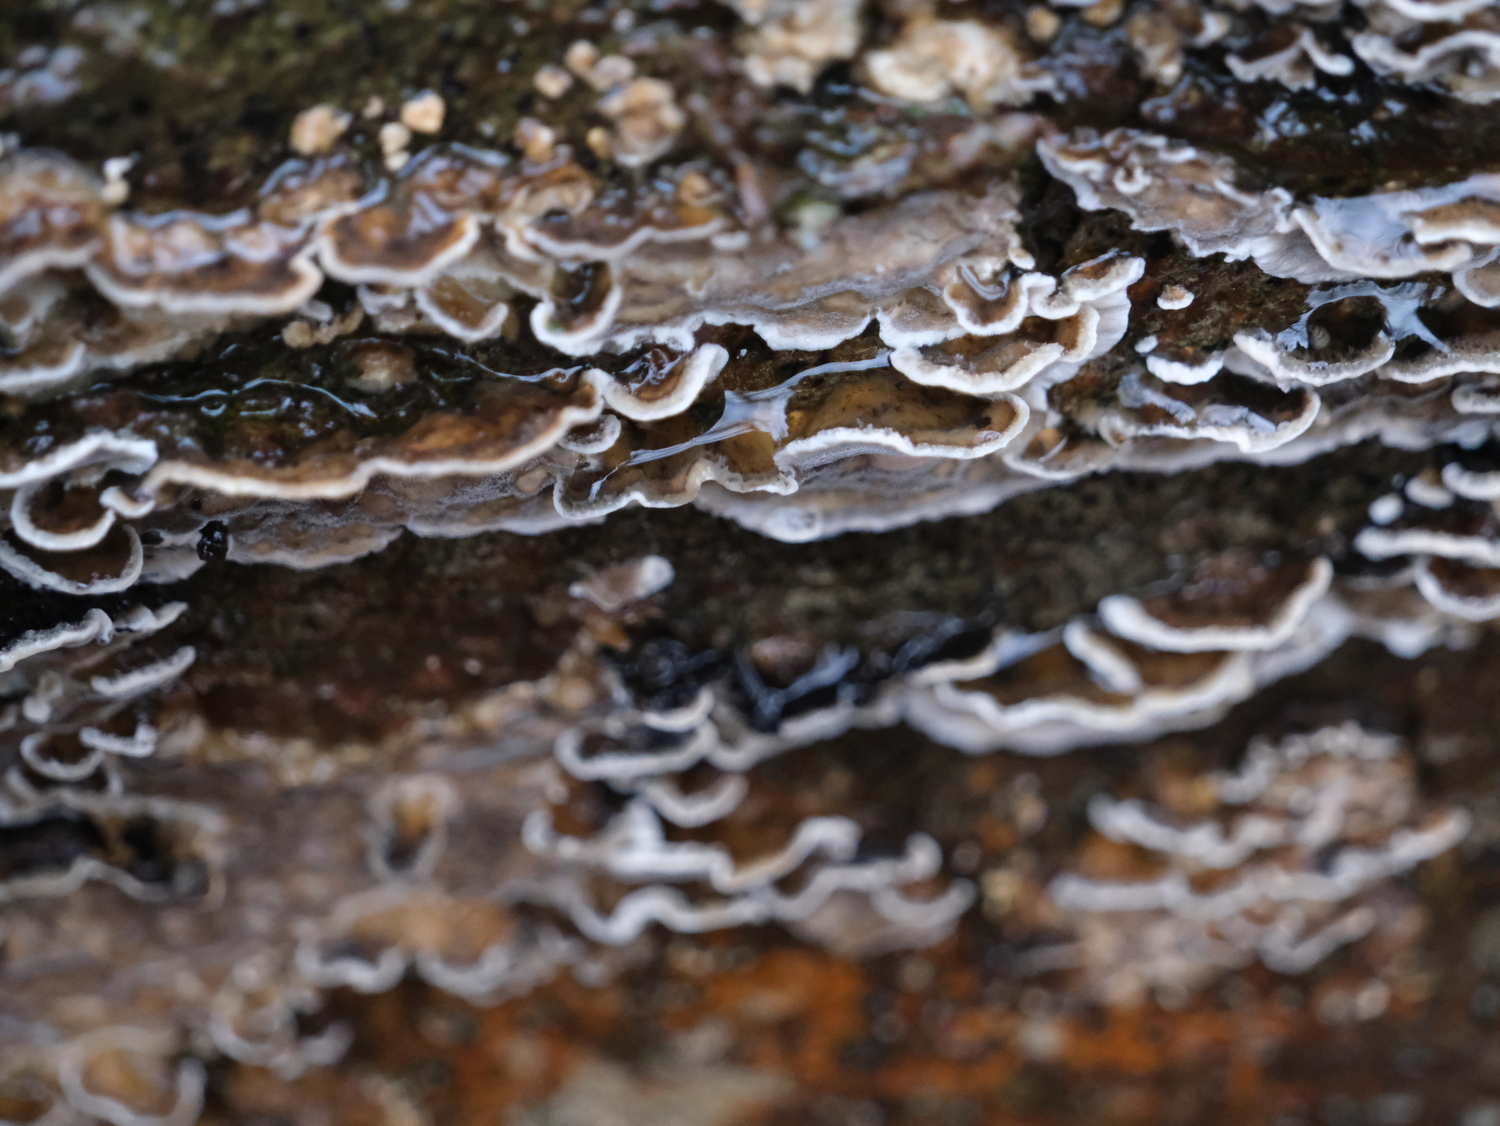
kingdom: Fungi
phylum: Basidiomycota
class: Agaricomycetes
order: Polyporales
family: Phanerochaetaceae
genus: Bjerkandera
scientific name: Bjerkandera adusta
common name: sveden sodporesvamp
